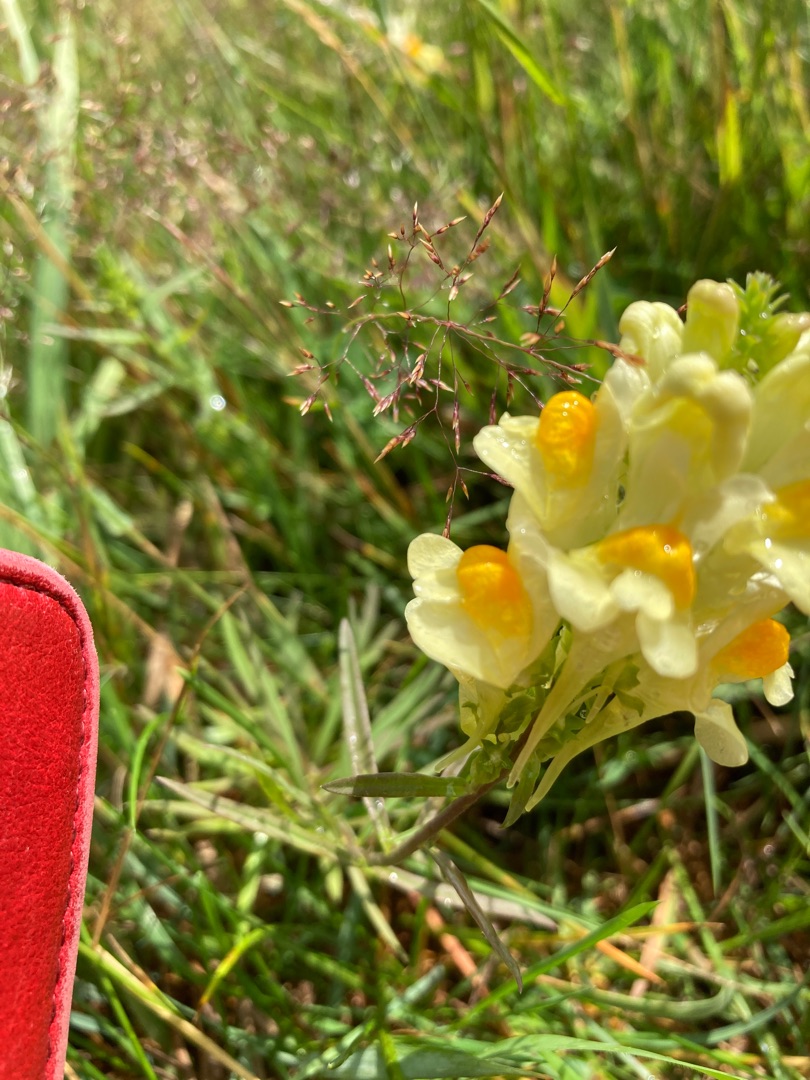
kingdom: Plantae
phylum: Tracheophyta
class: Magnoliopsida
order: Lamiales
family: Plantaginaceae
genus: Linaria
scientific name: Linaria vulgaris
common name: Almindelig torskemund
